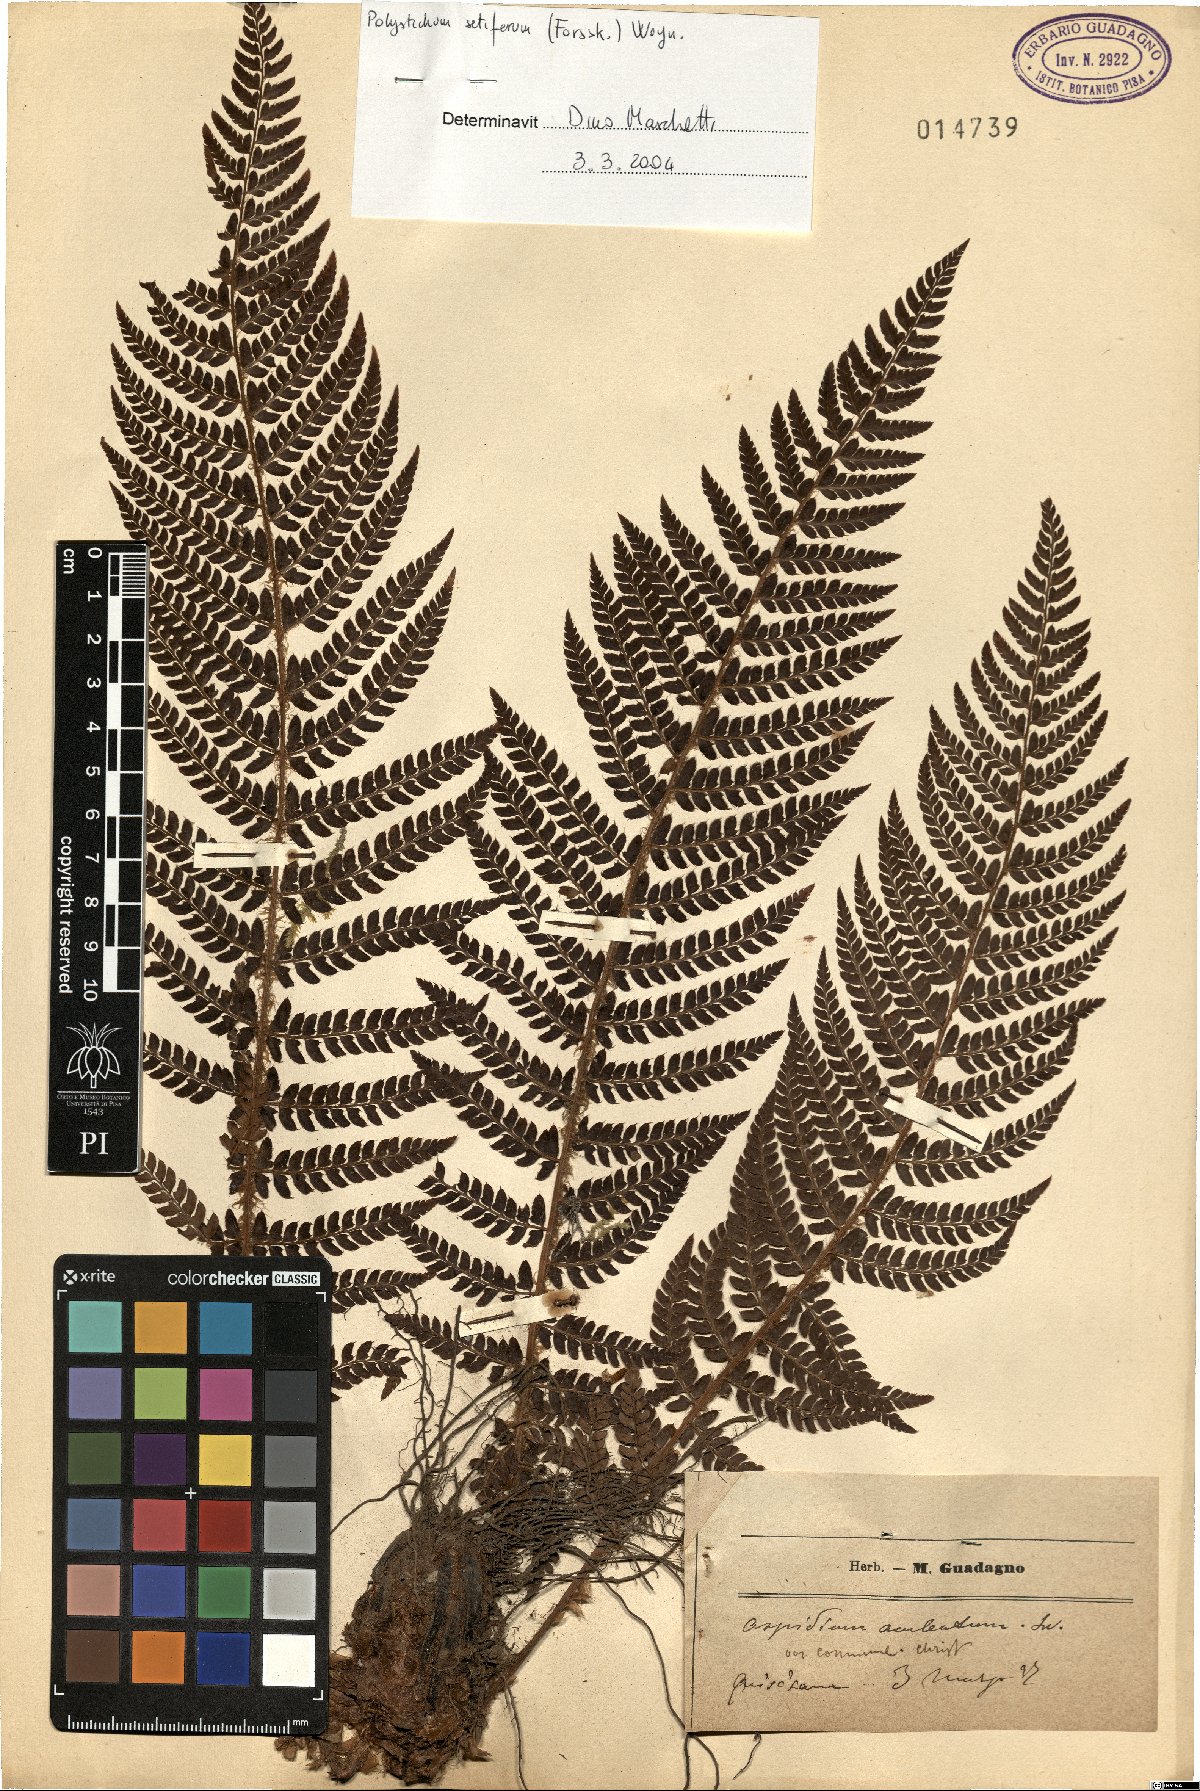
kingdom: Plantae
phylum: Tracheophyta
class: Polypodiopsida
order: Polypodiales
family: Dryopteridaceae
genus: Polystichum
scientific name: Polystichum setiferum
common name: Soft shield-fern
